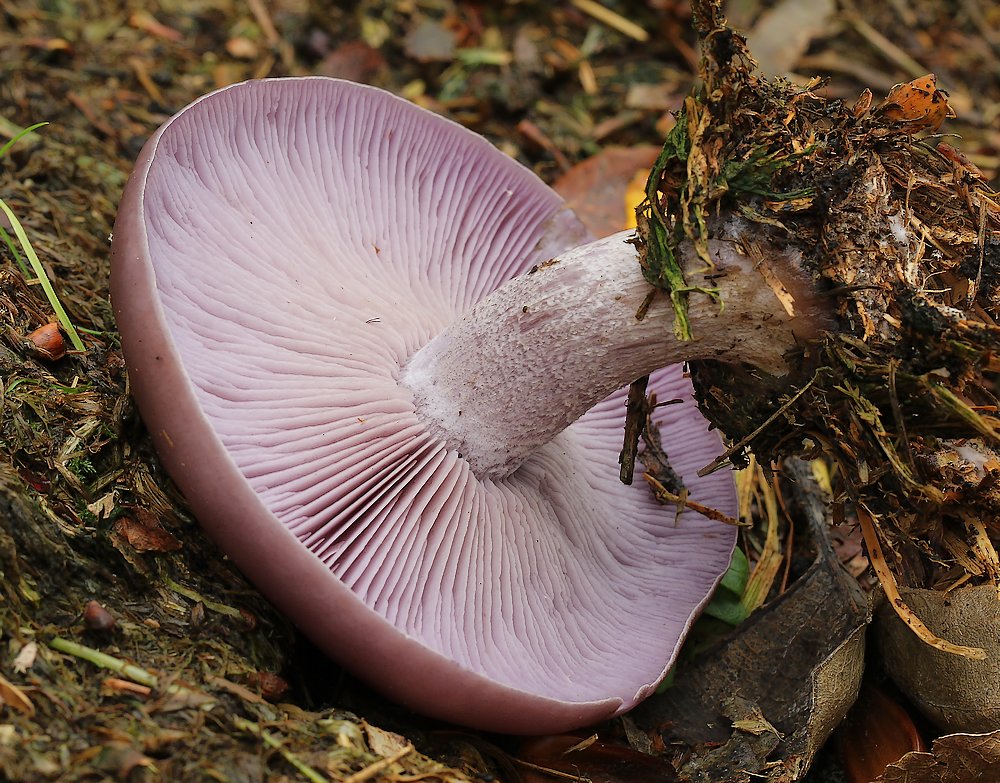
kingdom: Fungi
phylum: Basidiomycota
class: Agaricomycetes
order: Agaricales
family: Tricholomataceae
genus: Lepista
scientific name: Lepista nuda
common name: violet hekseringshat
